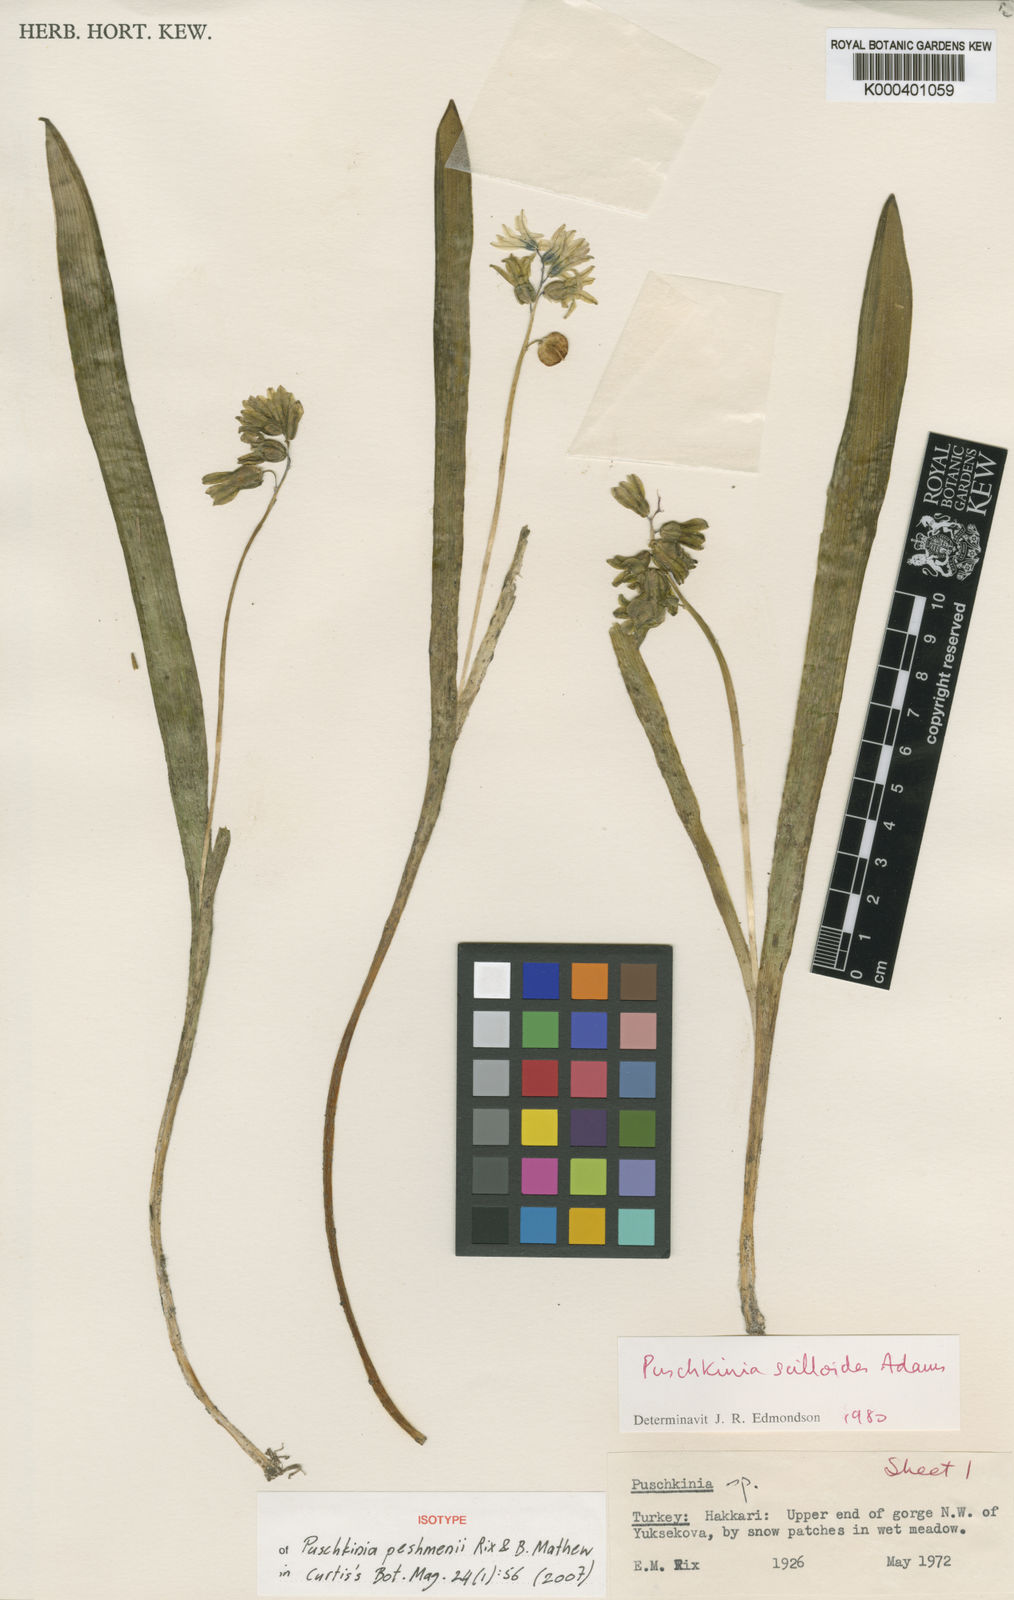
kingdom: Plantae
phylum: Tracheophyta
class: Liliopsida
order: Asparagales
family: Asparagaceae
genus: Puschkinia
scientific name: Puschkinia peshmenii
